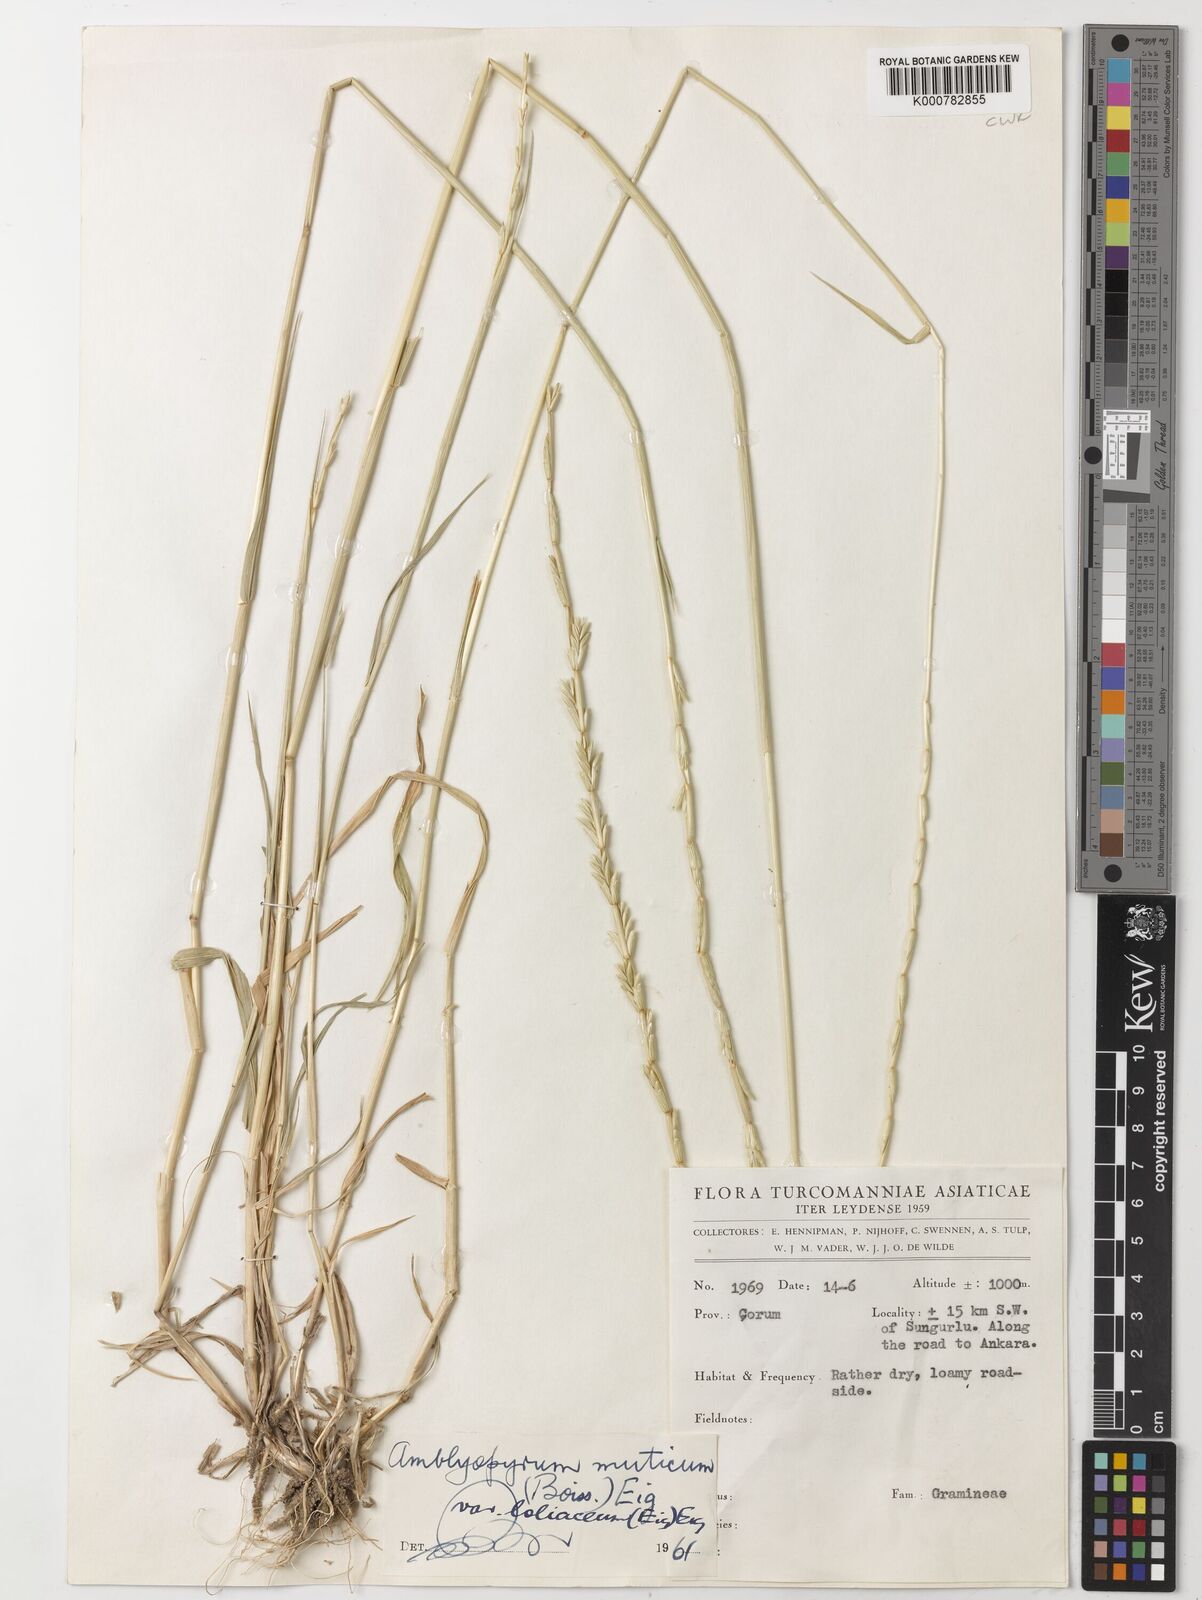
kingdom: Plantae
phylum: Tracheophyta
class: Liliopsida
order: Poales
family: Poaceae
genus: Aegilops
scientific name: Aegilops mutica
